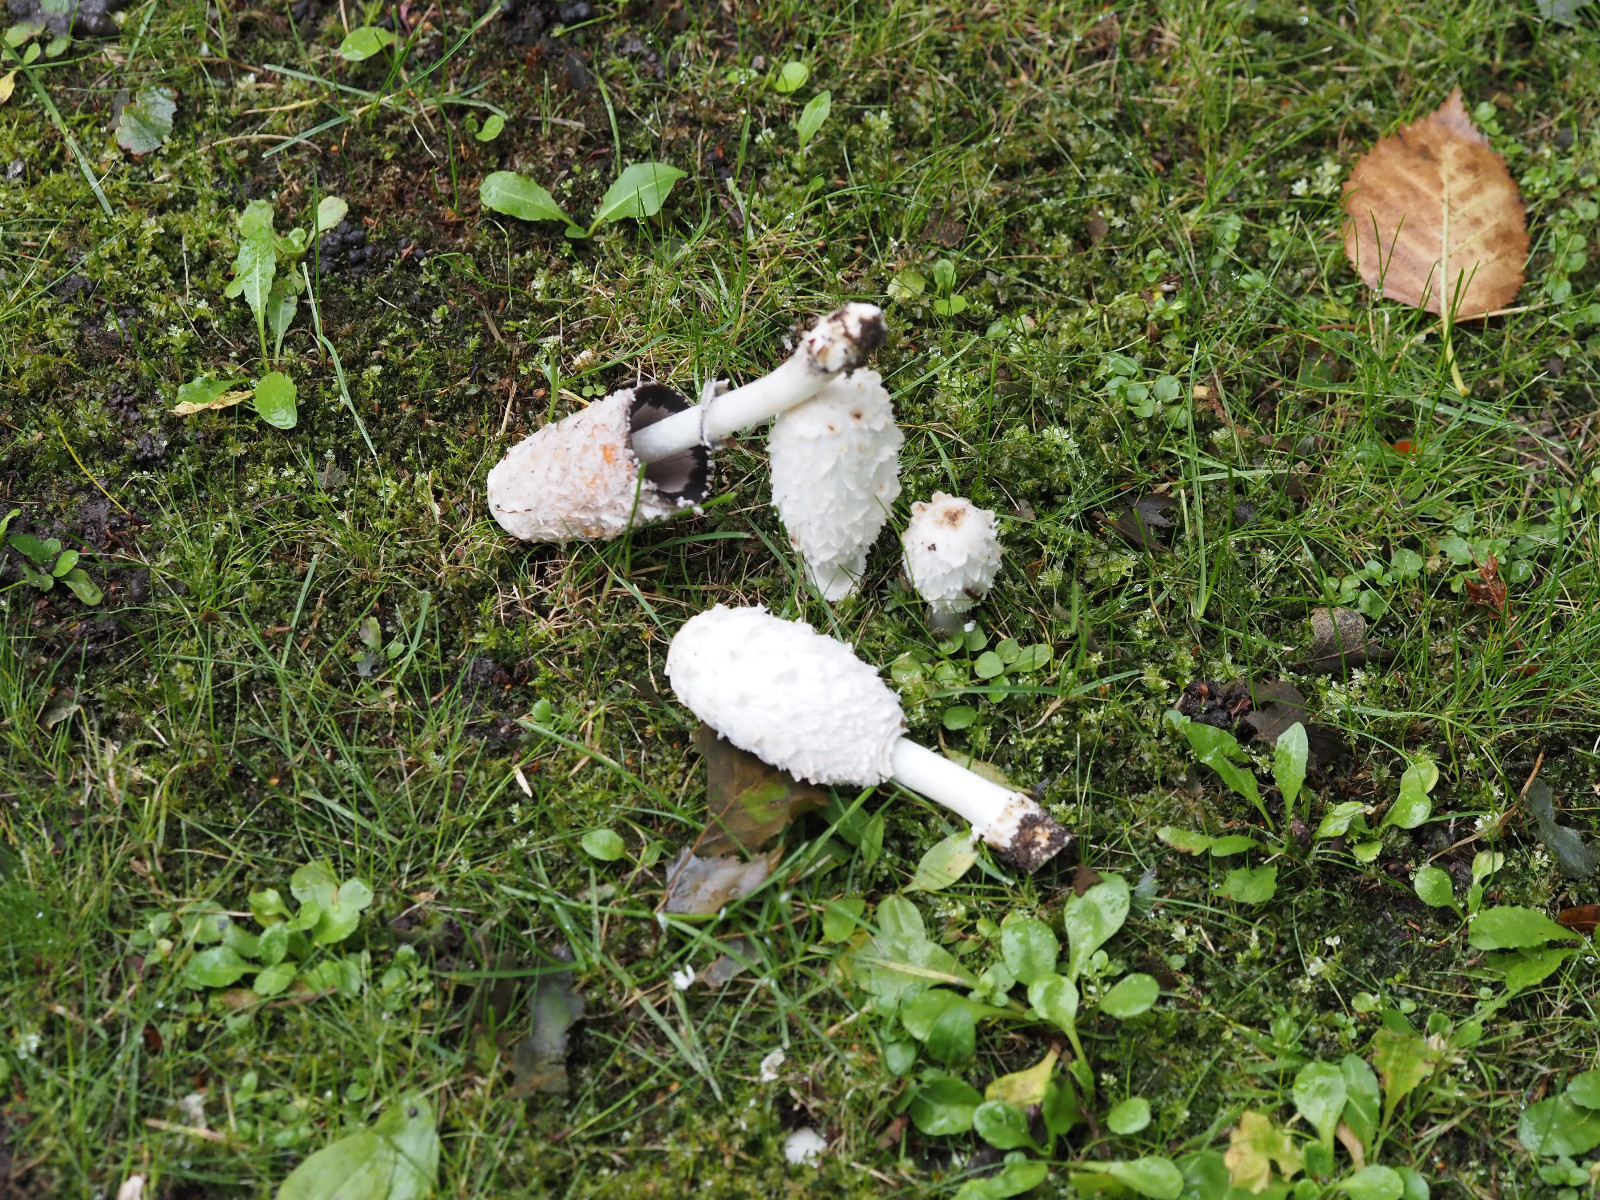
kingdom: Fungi
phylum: Basidiomycota
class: Agaricomycetes
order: Agaricales
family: Agaricaceae
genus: Coprinus
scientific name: Coprinus comatus
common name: stor parykhat
